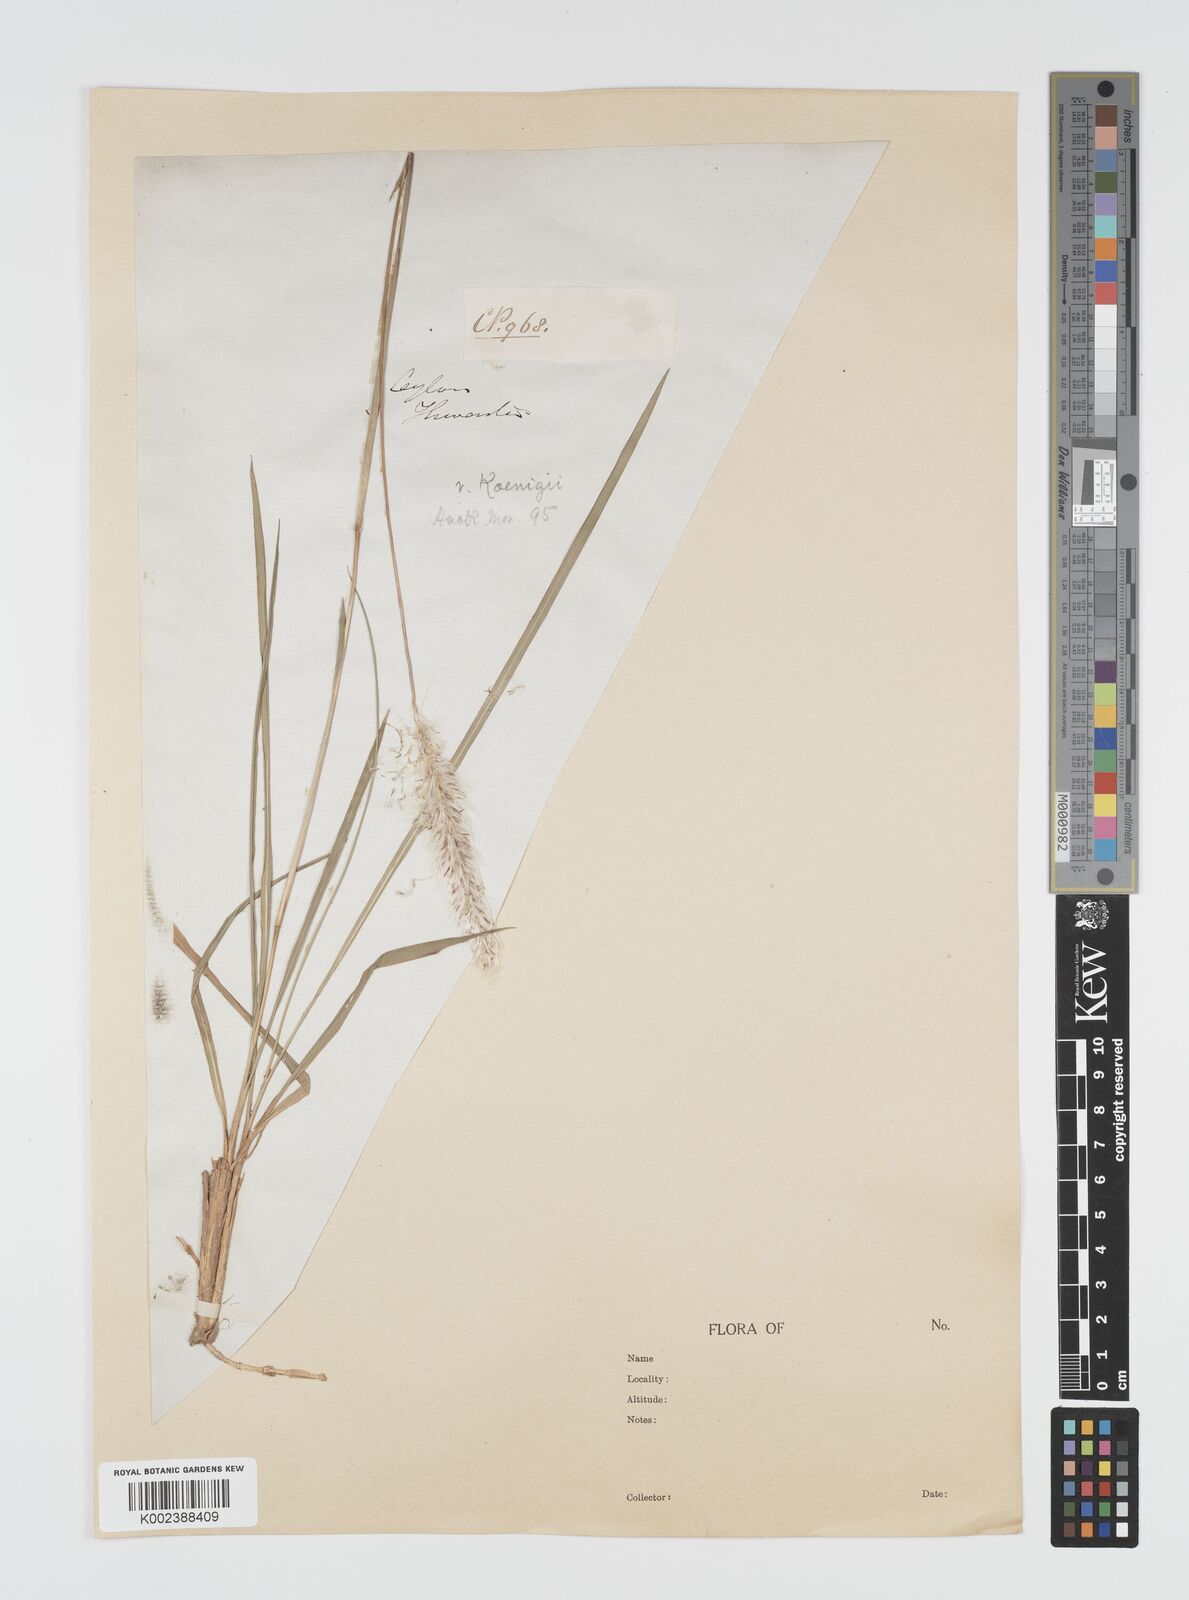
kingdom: Plantae
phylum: Tracheophyta
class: Liliopsida
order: Poales
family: Poaceae
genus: Imperata
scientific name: Imperata cylindrica
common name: Cogongrass
